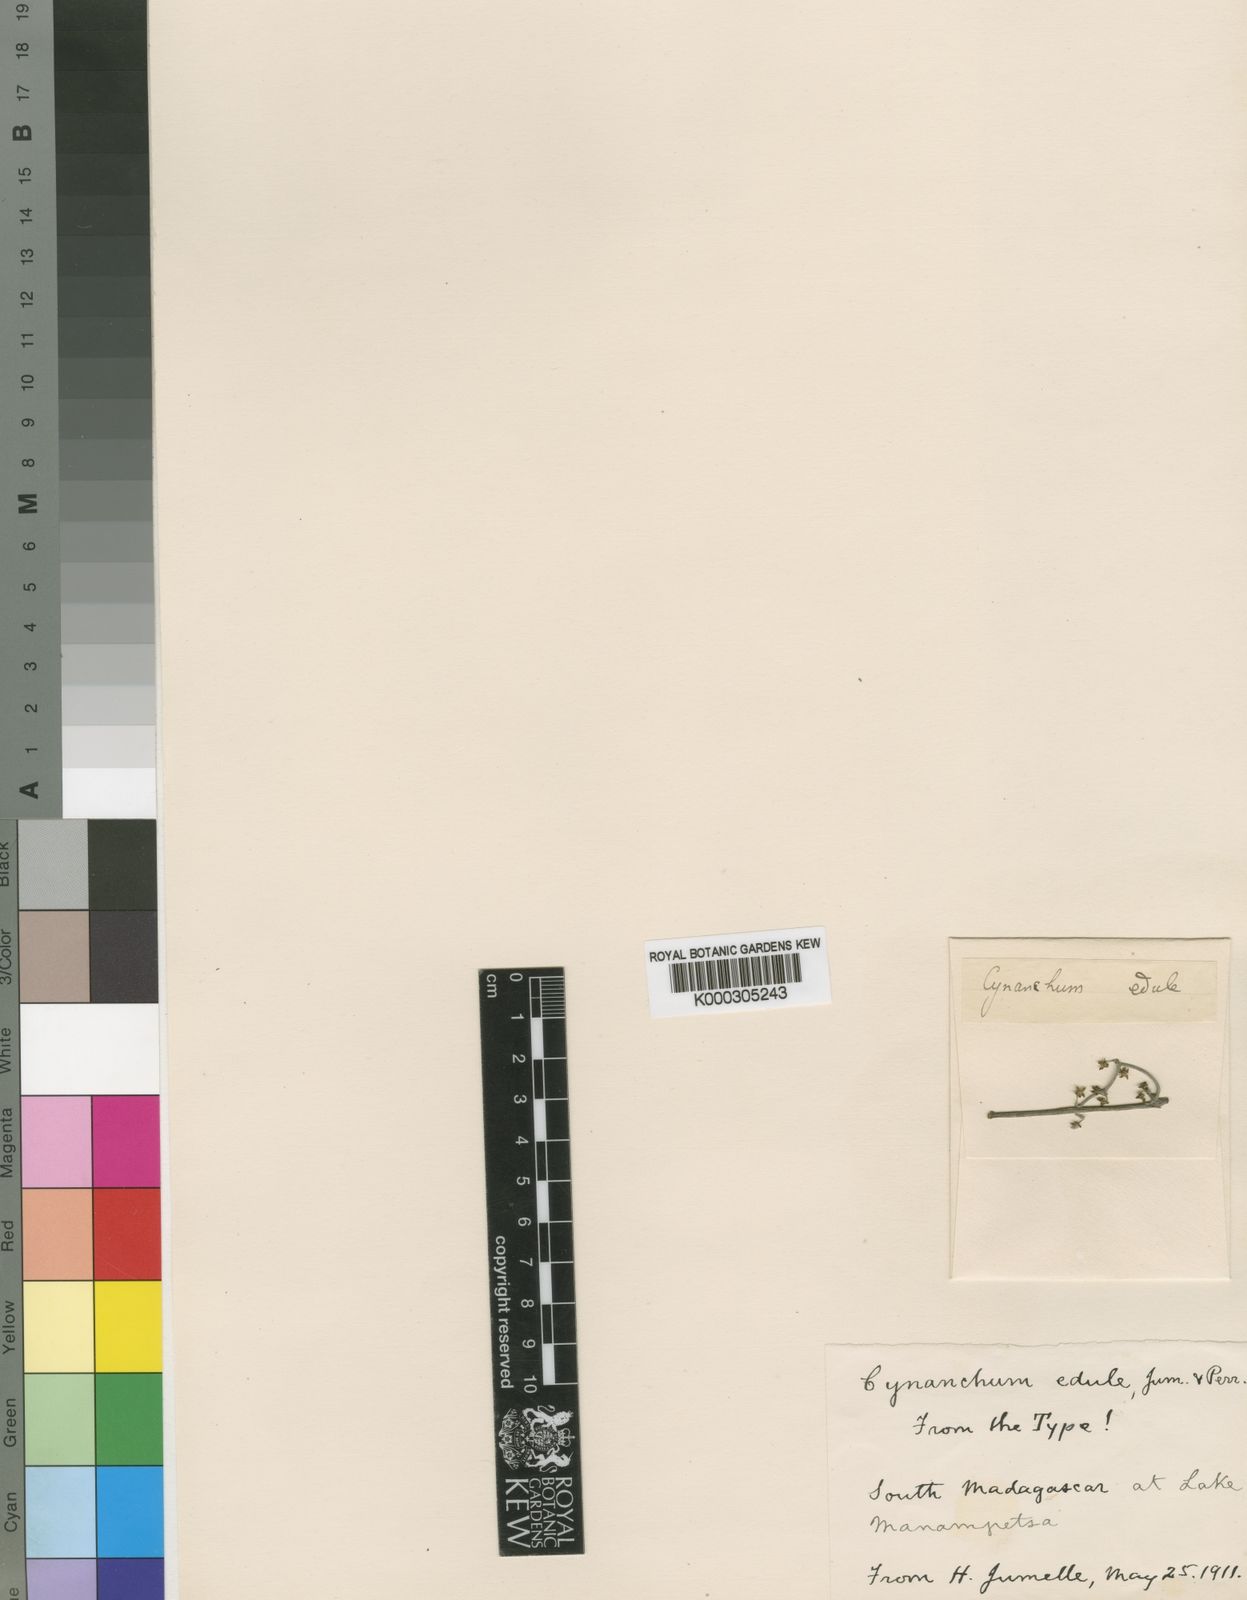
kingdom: Plantae
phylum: Tracheophyta
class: Magnoliopsida
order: Gentianales
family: Apocynaceae
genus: Cynanchum
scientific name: Cynanchum gerrardi
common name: Swallow-wort
